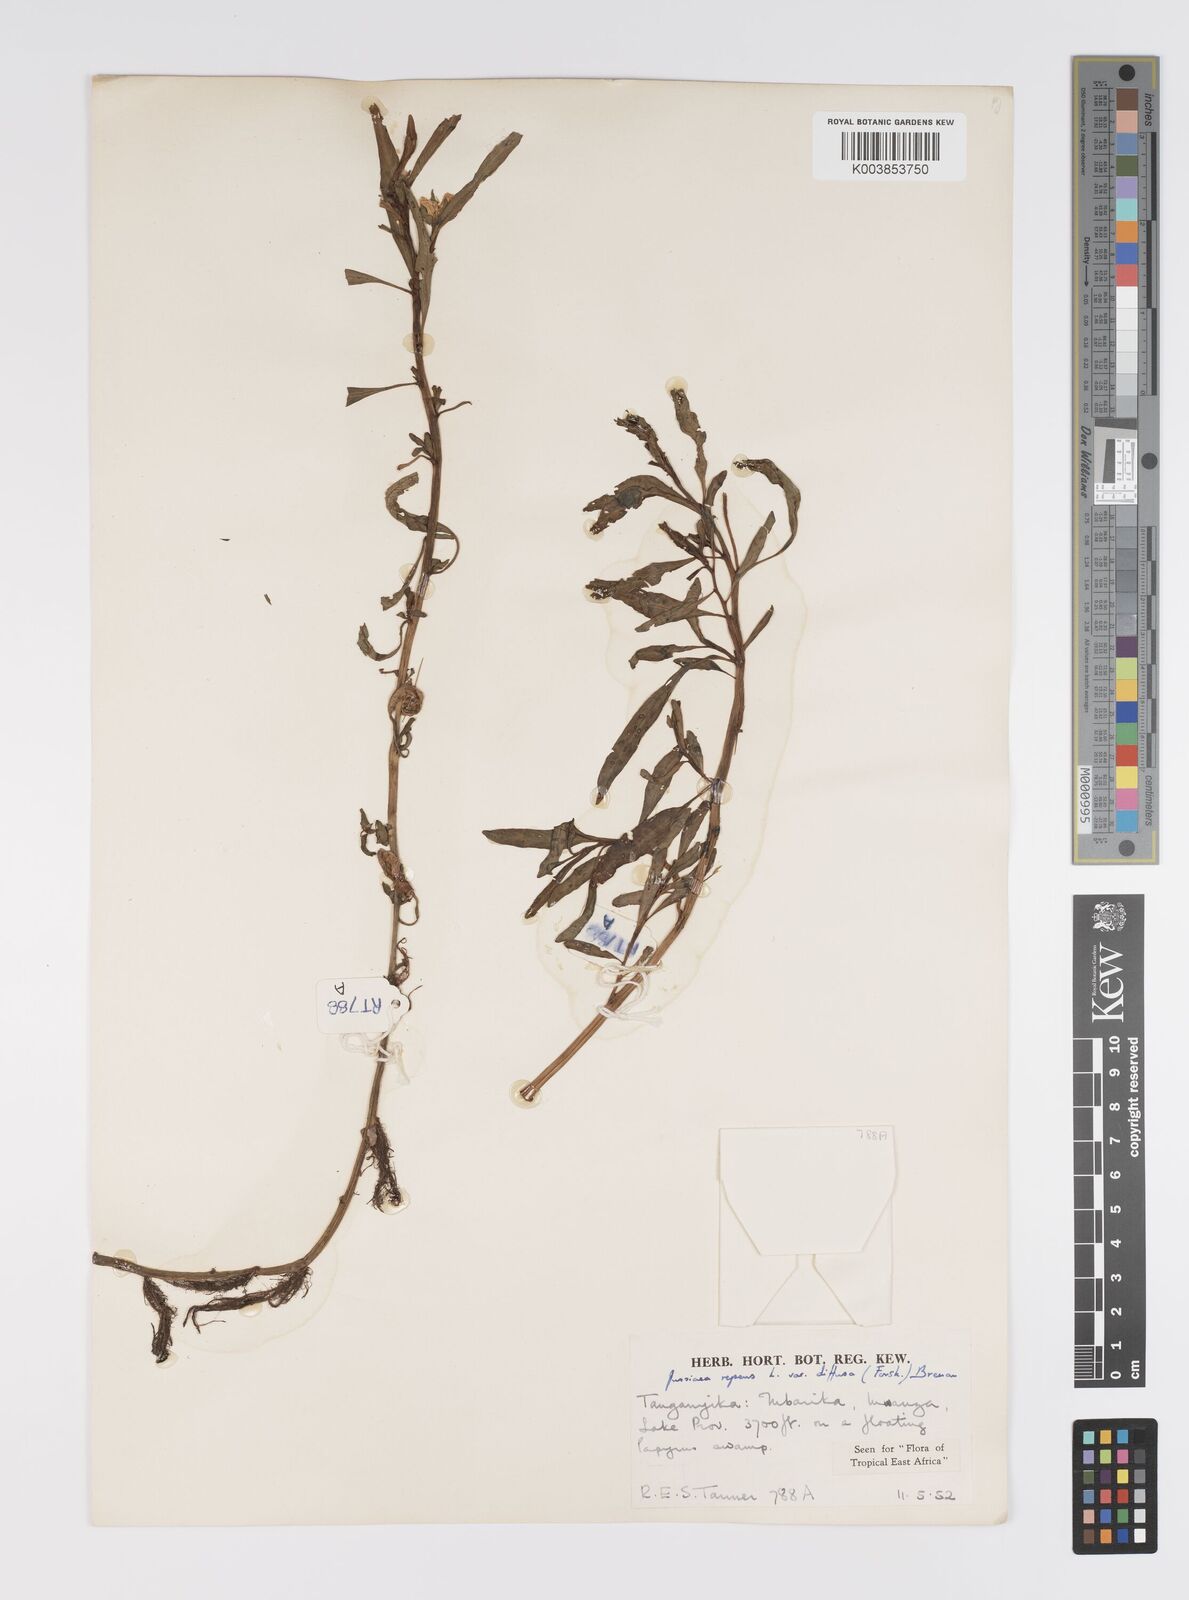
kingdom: Plantae
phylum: Tracheophyta
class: Magnoliopsida
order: Myrtales
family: Onagraceae
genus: Ludwigia
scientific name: Ludwigia adscendens
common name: Creeping water primrose
